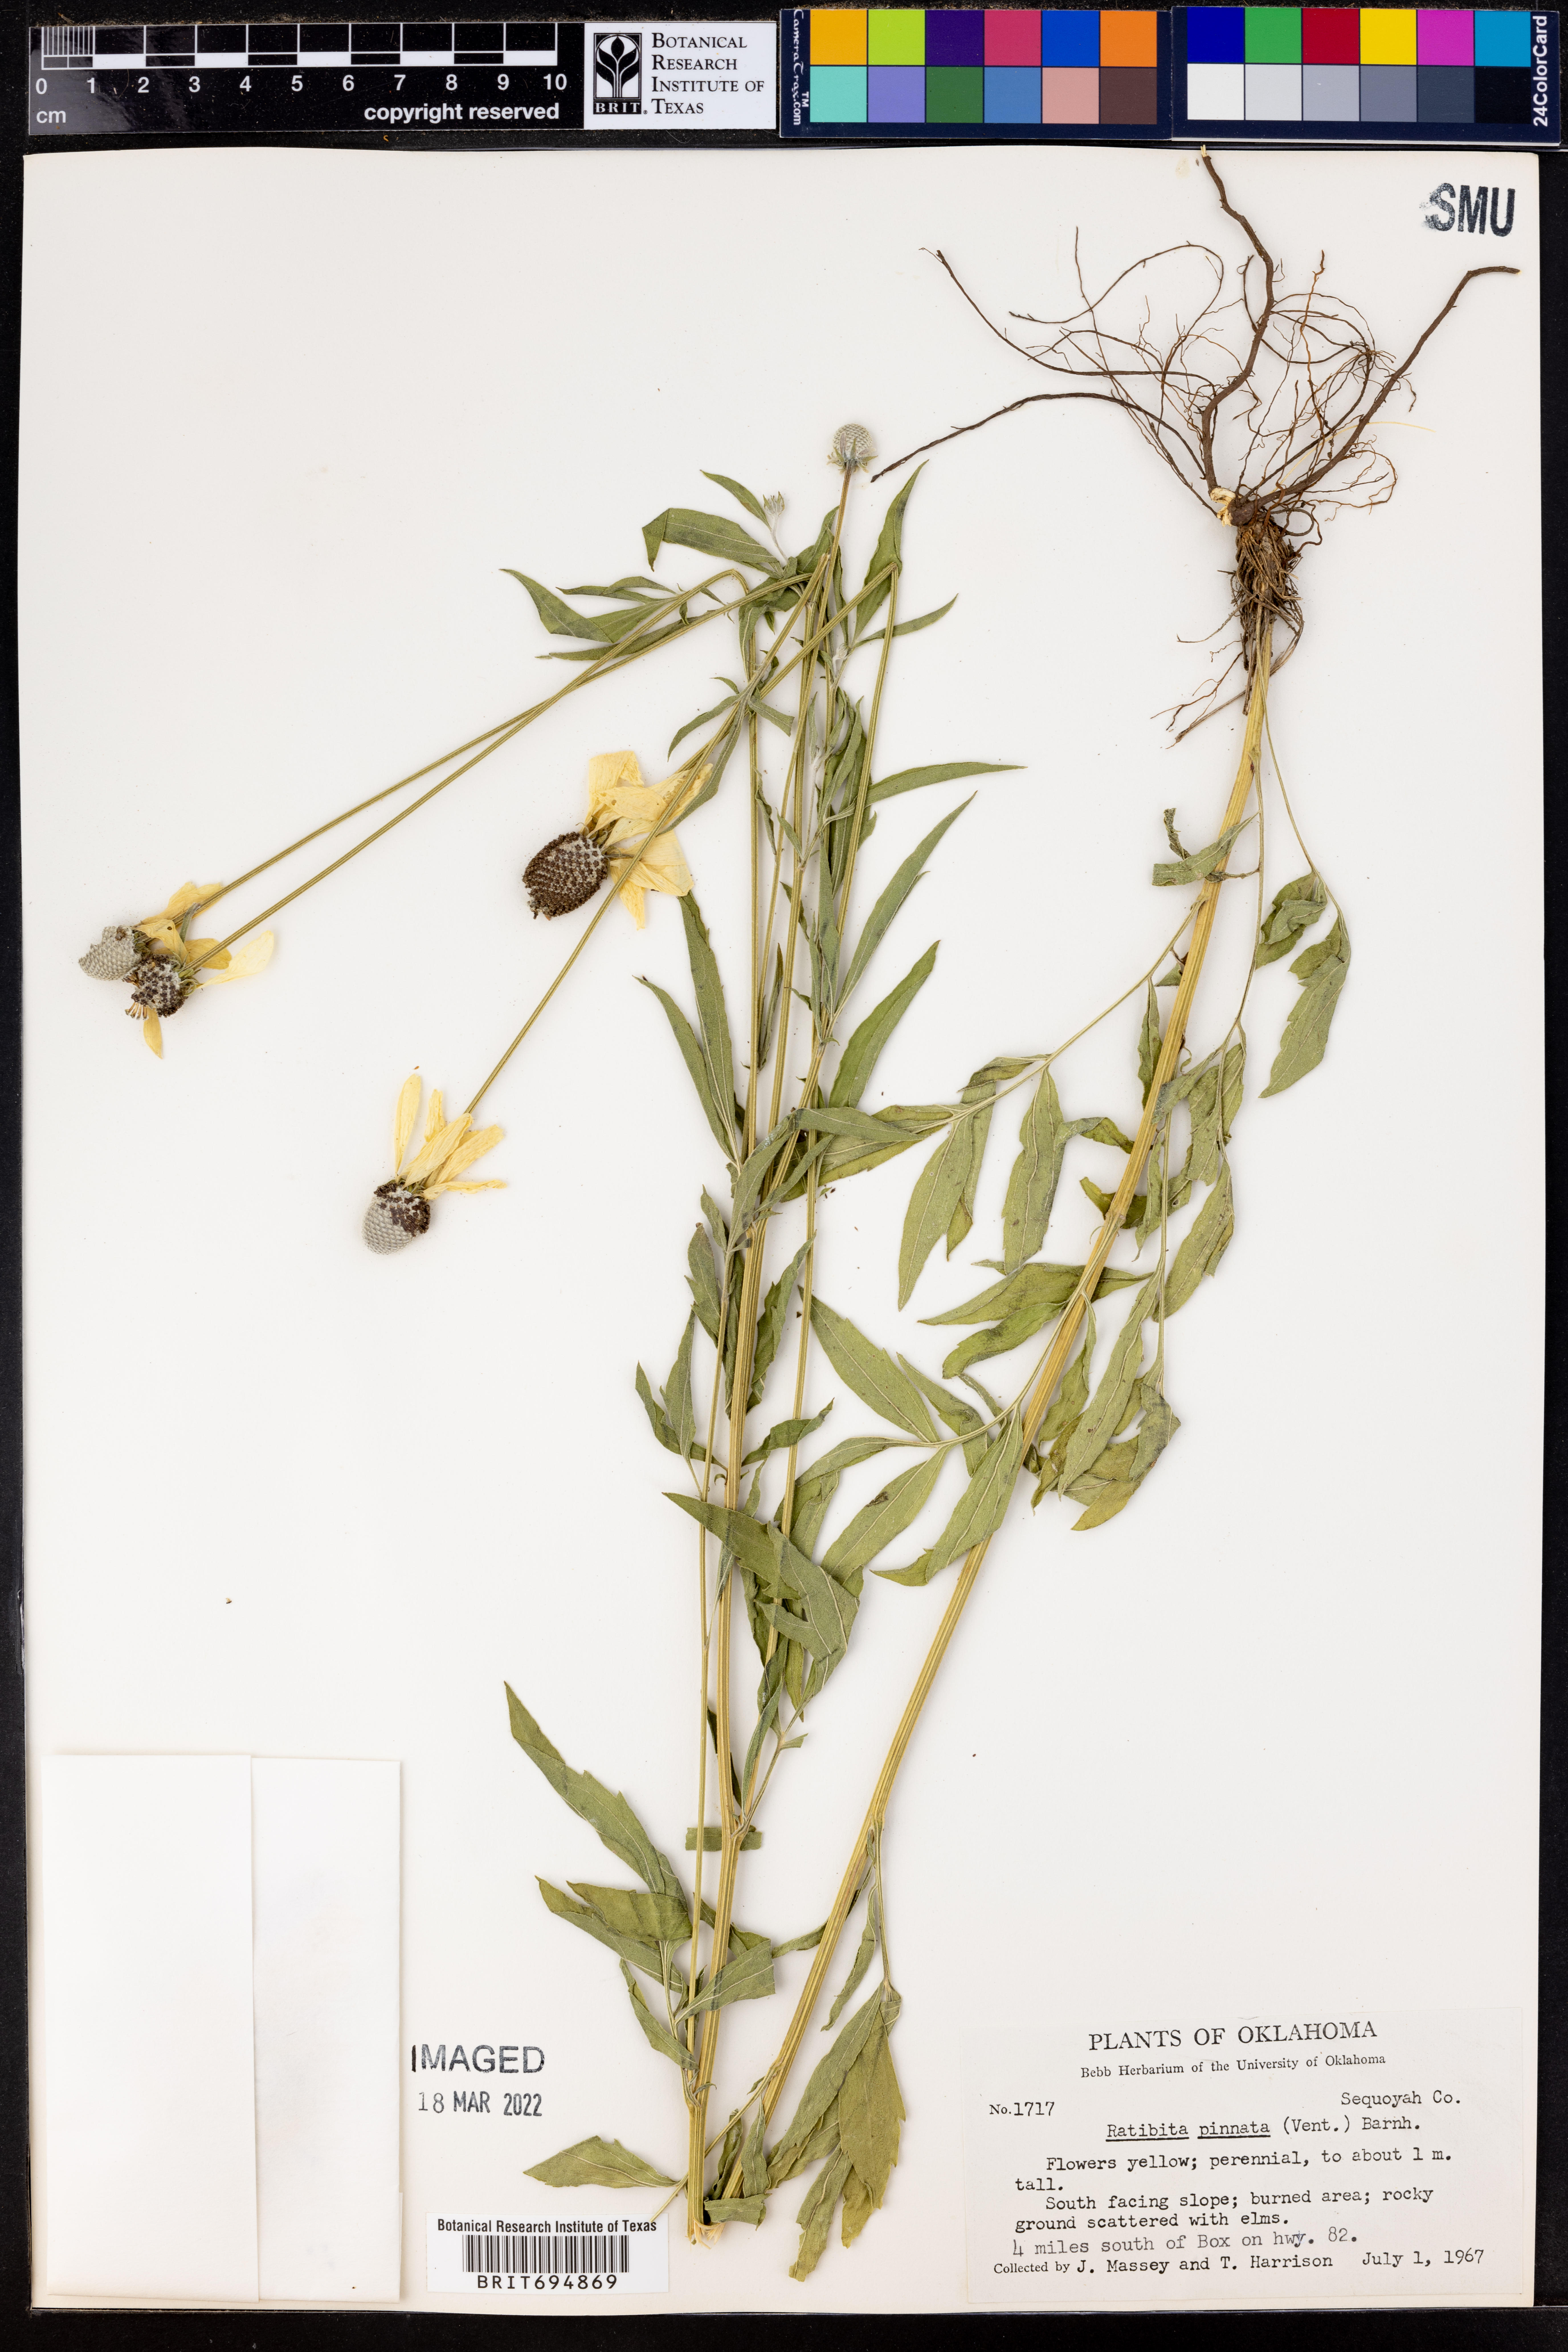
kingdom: Plantae
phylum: Tracheophyta
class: Magnoliopsida
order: Asterales
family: Asteraceae
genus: Ratibida
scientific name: Ratibida pinnata
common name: Drooping prairie-coneflower
